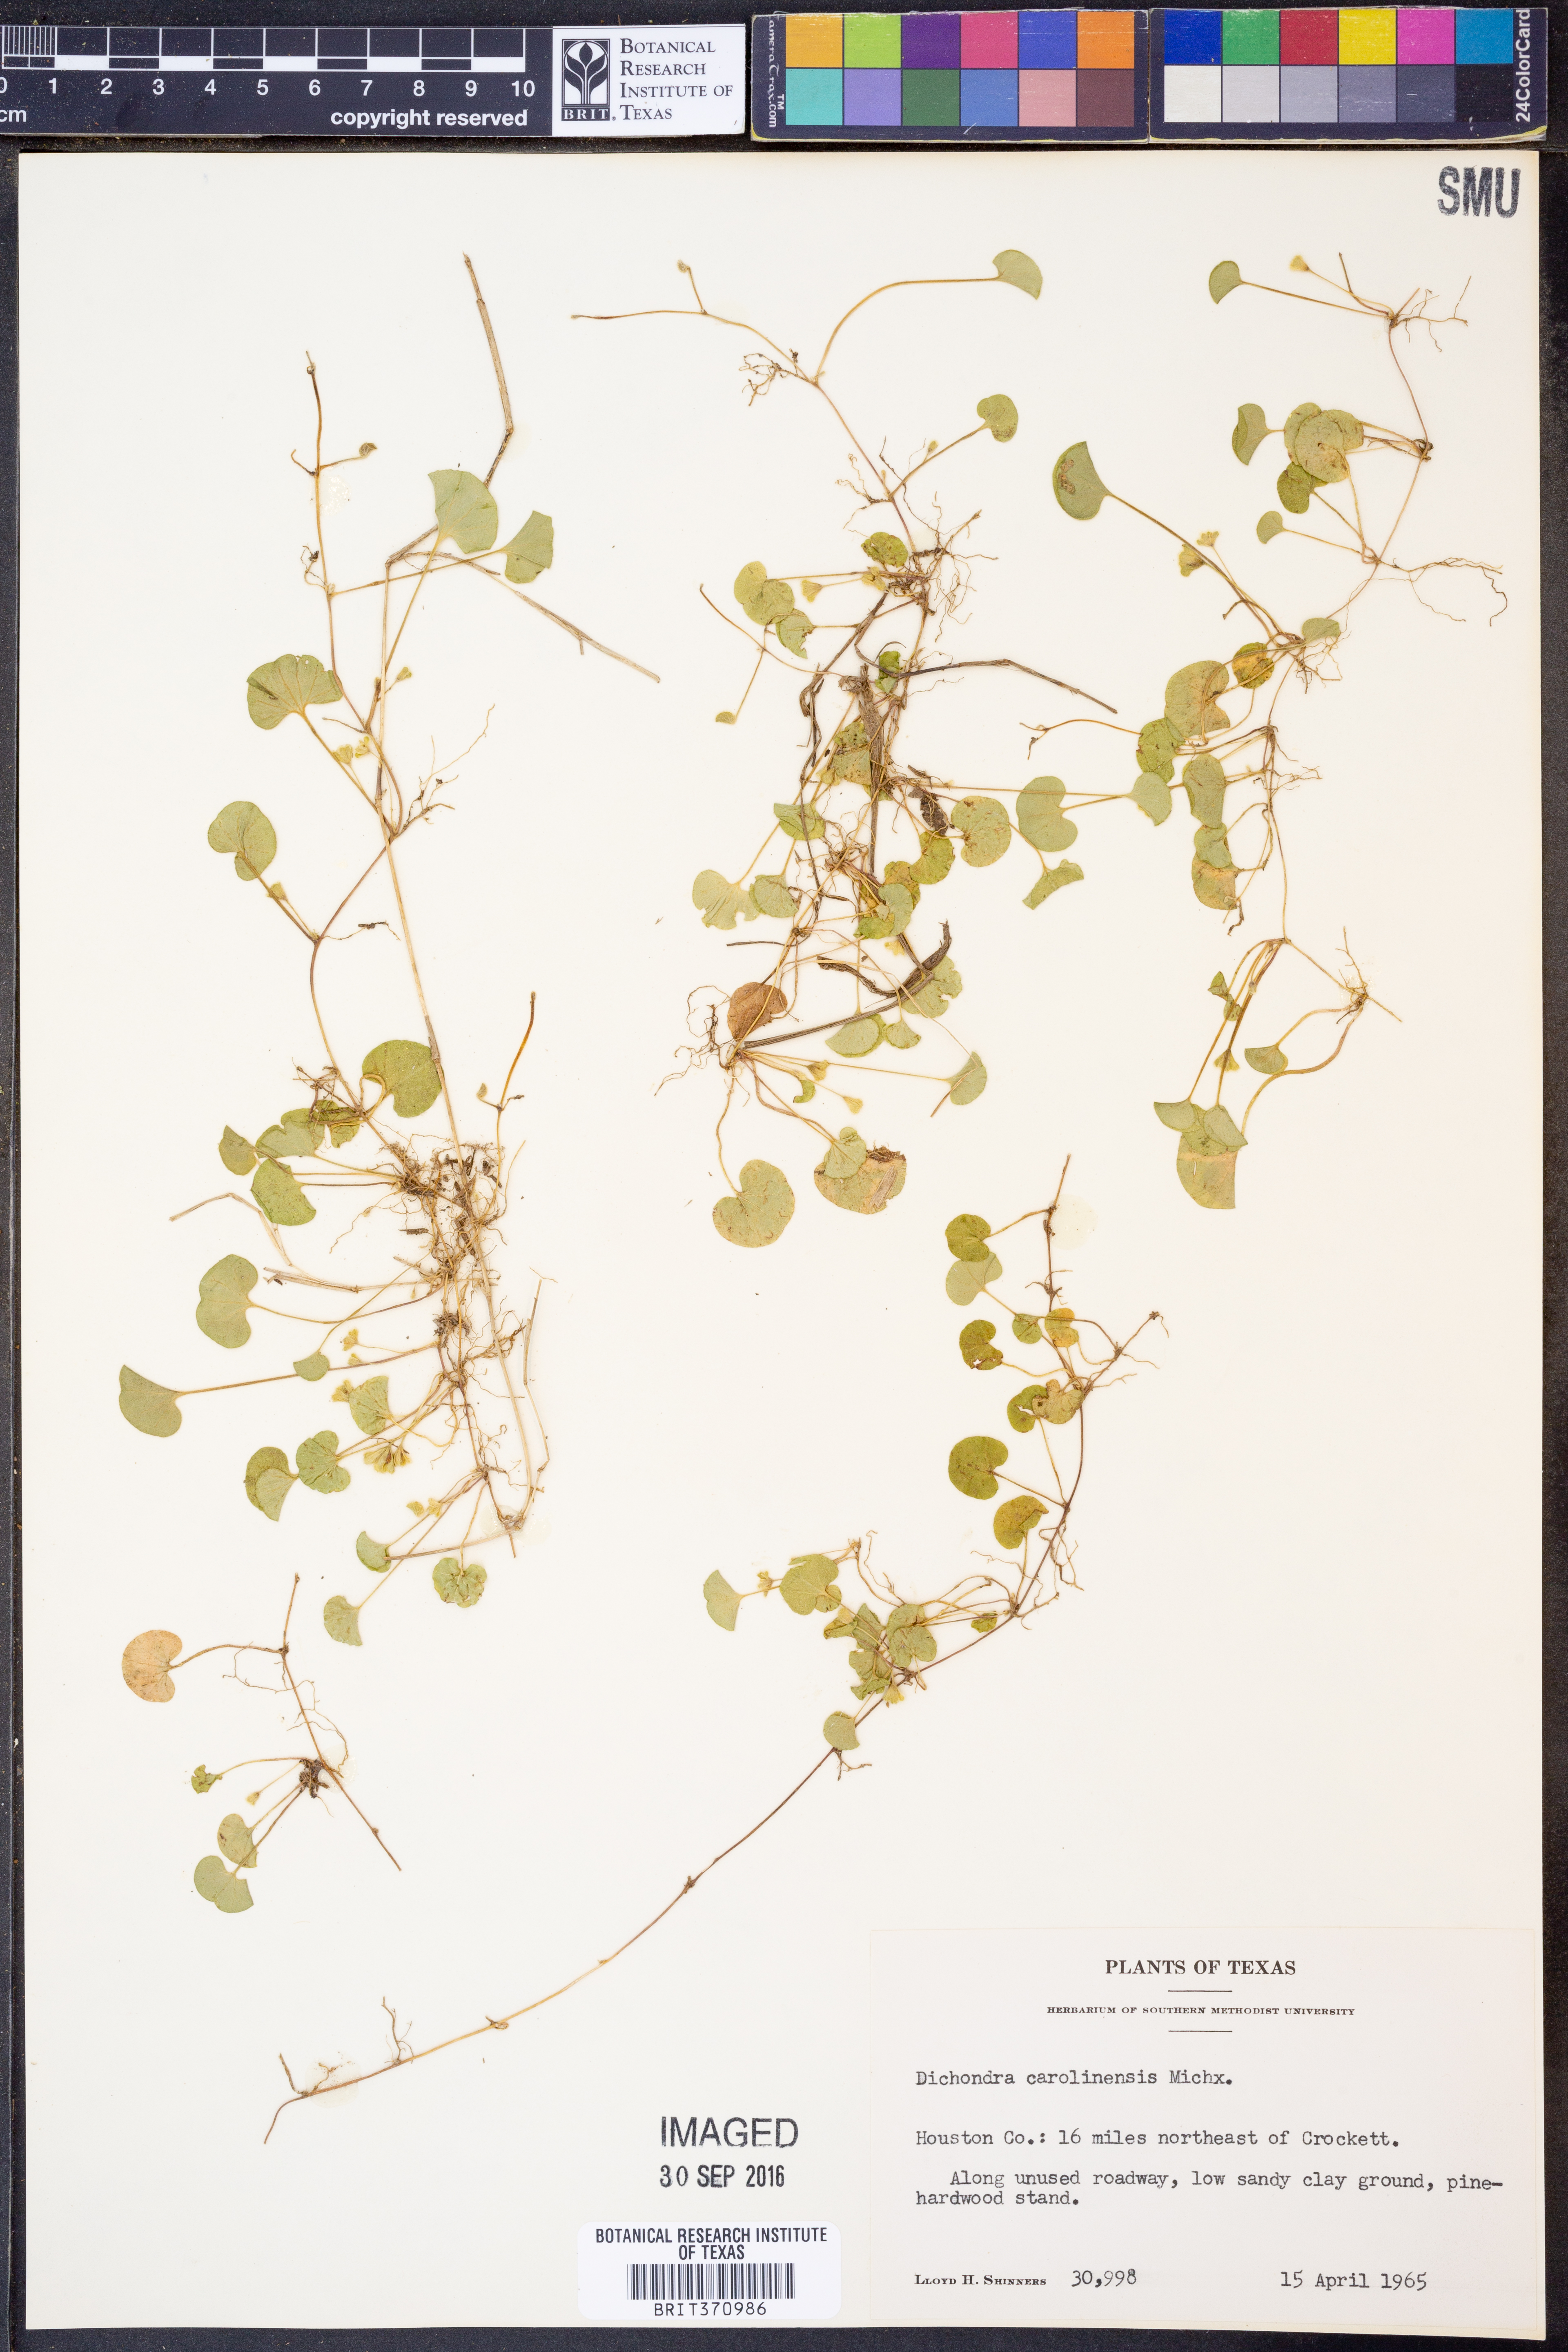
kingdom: Plantae
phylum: Tracheophyta
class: Magnoliopsida
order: Solanales
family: Convolvulaceae
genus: Dichondra
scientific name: Dichondra carolinensis
